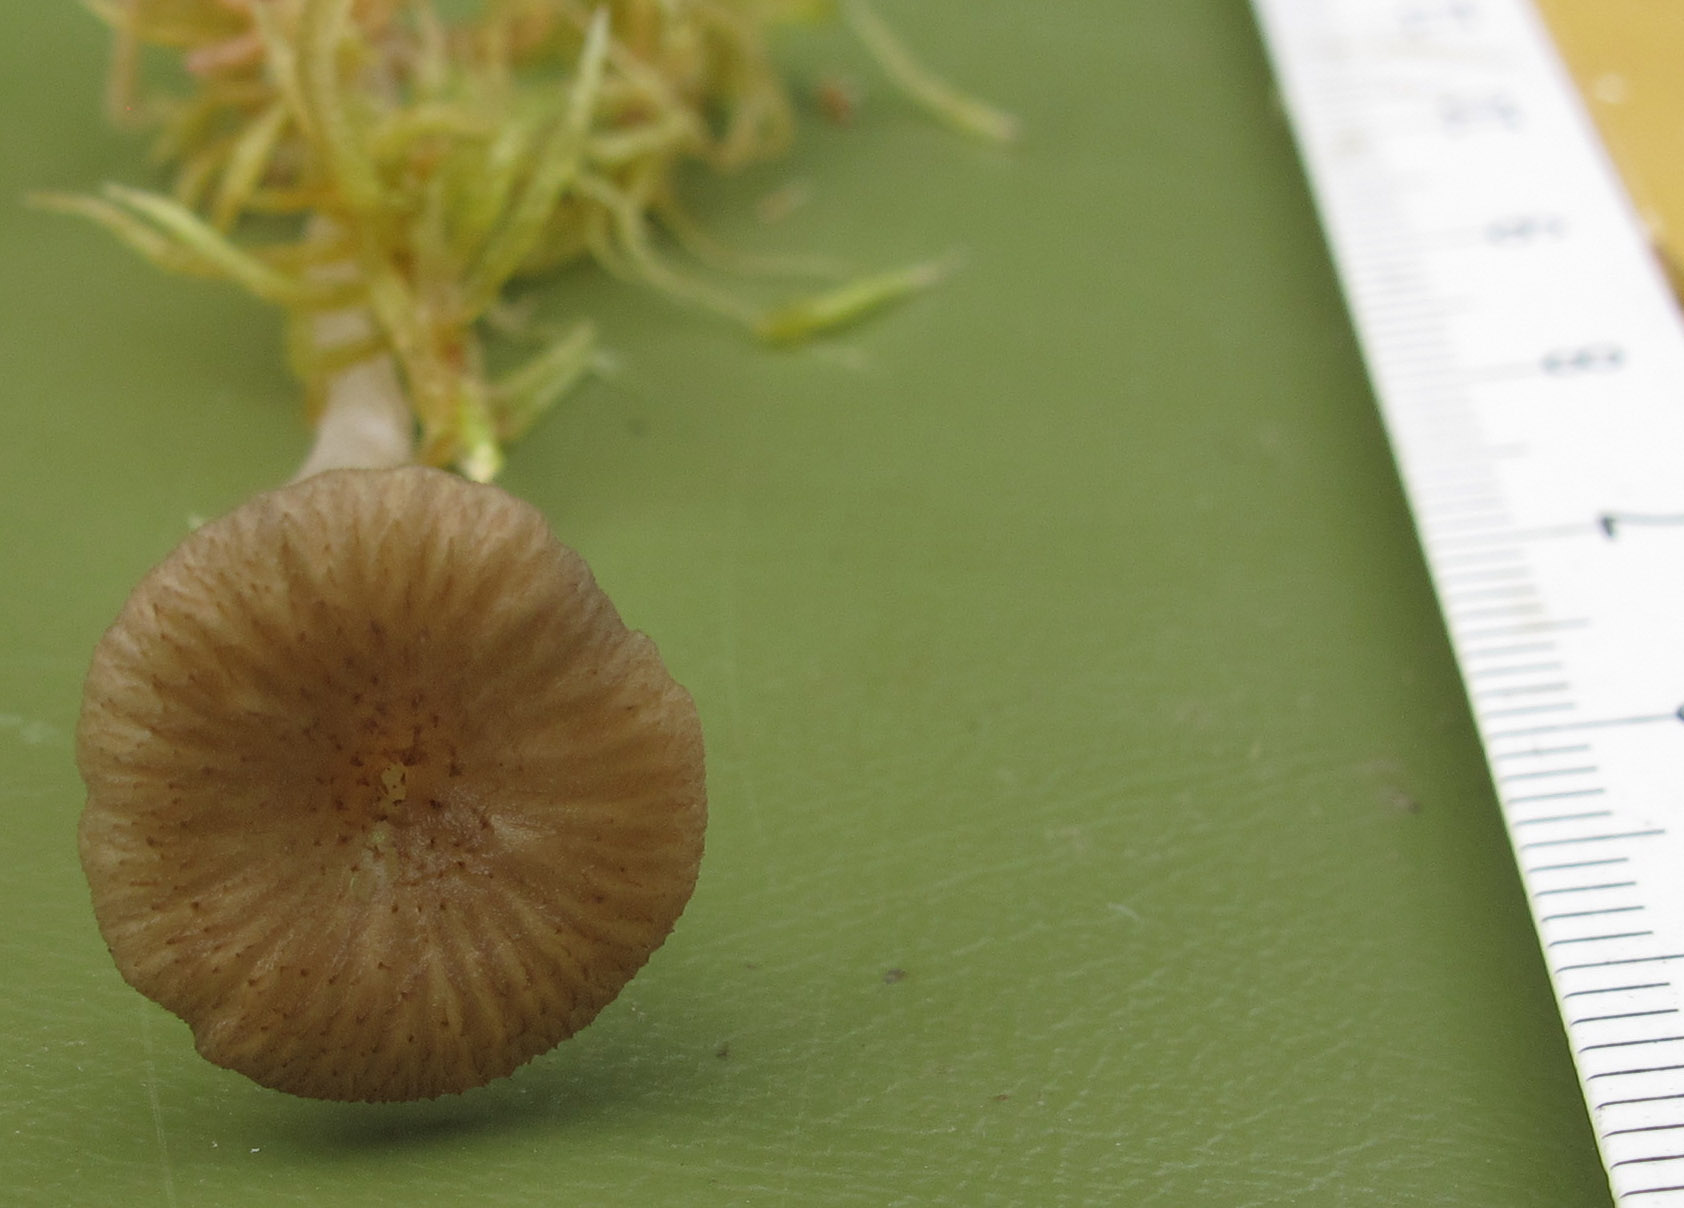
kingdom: Fungi
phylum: Basidiomycota
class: Agaricomycetes
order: Agaricales
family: Hygrophoraceae
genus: Arrhenia
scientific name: Arrhenia gerardiana
